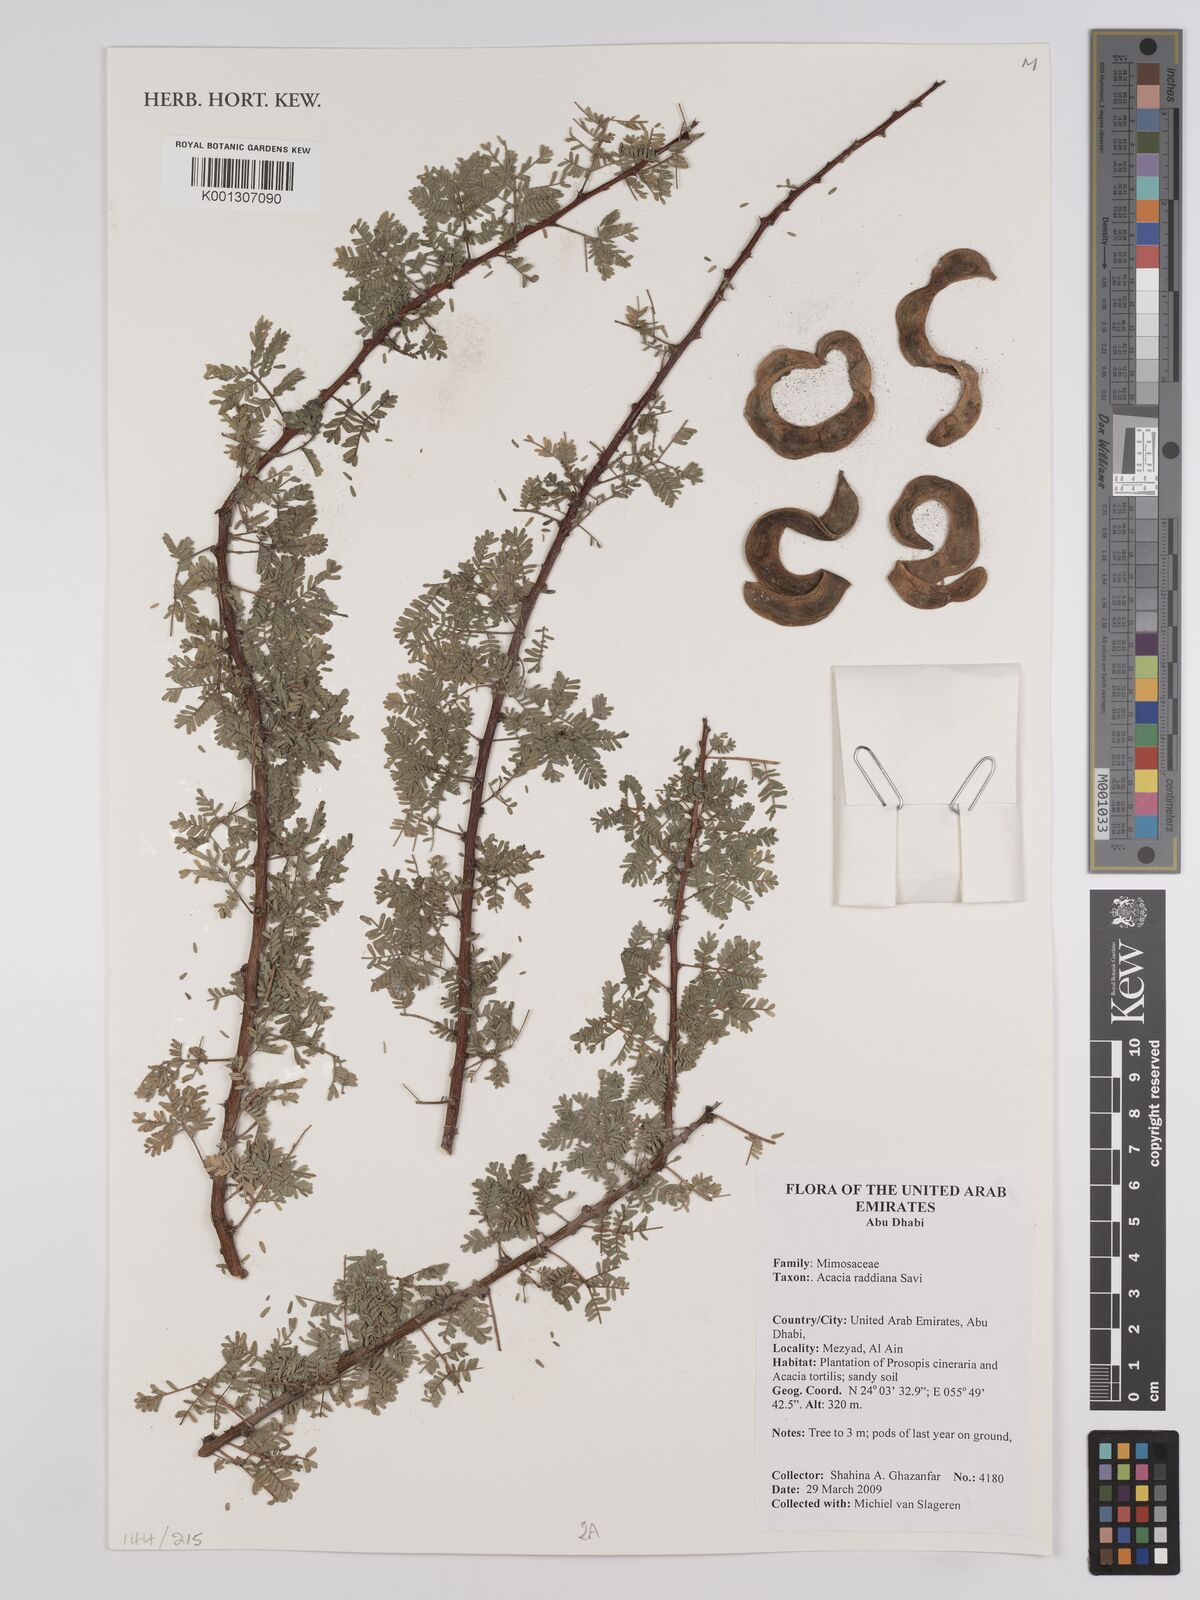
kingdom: Plantae
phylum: Tracheophyta
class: Magnoliopsida
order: Fabales
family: Fabaceae
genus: Vachellia
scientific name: Vachellia tortilis
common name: Umbrella thorn acacia
